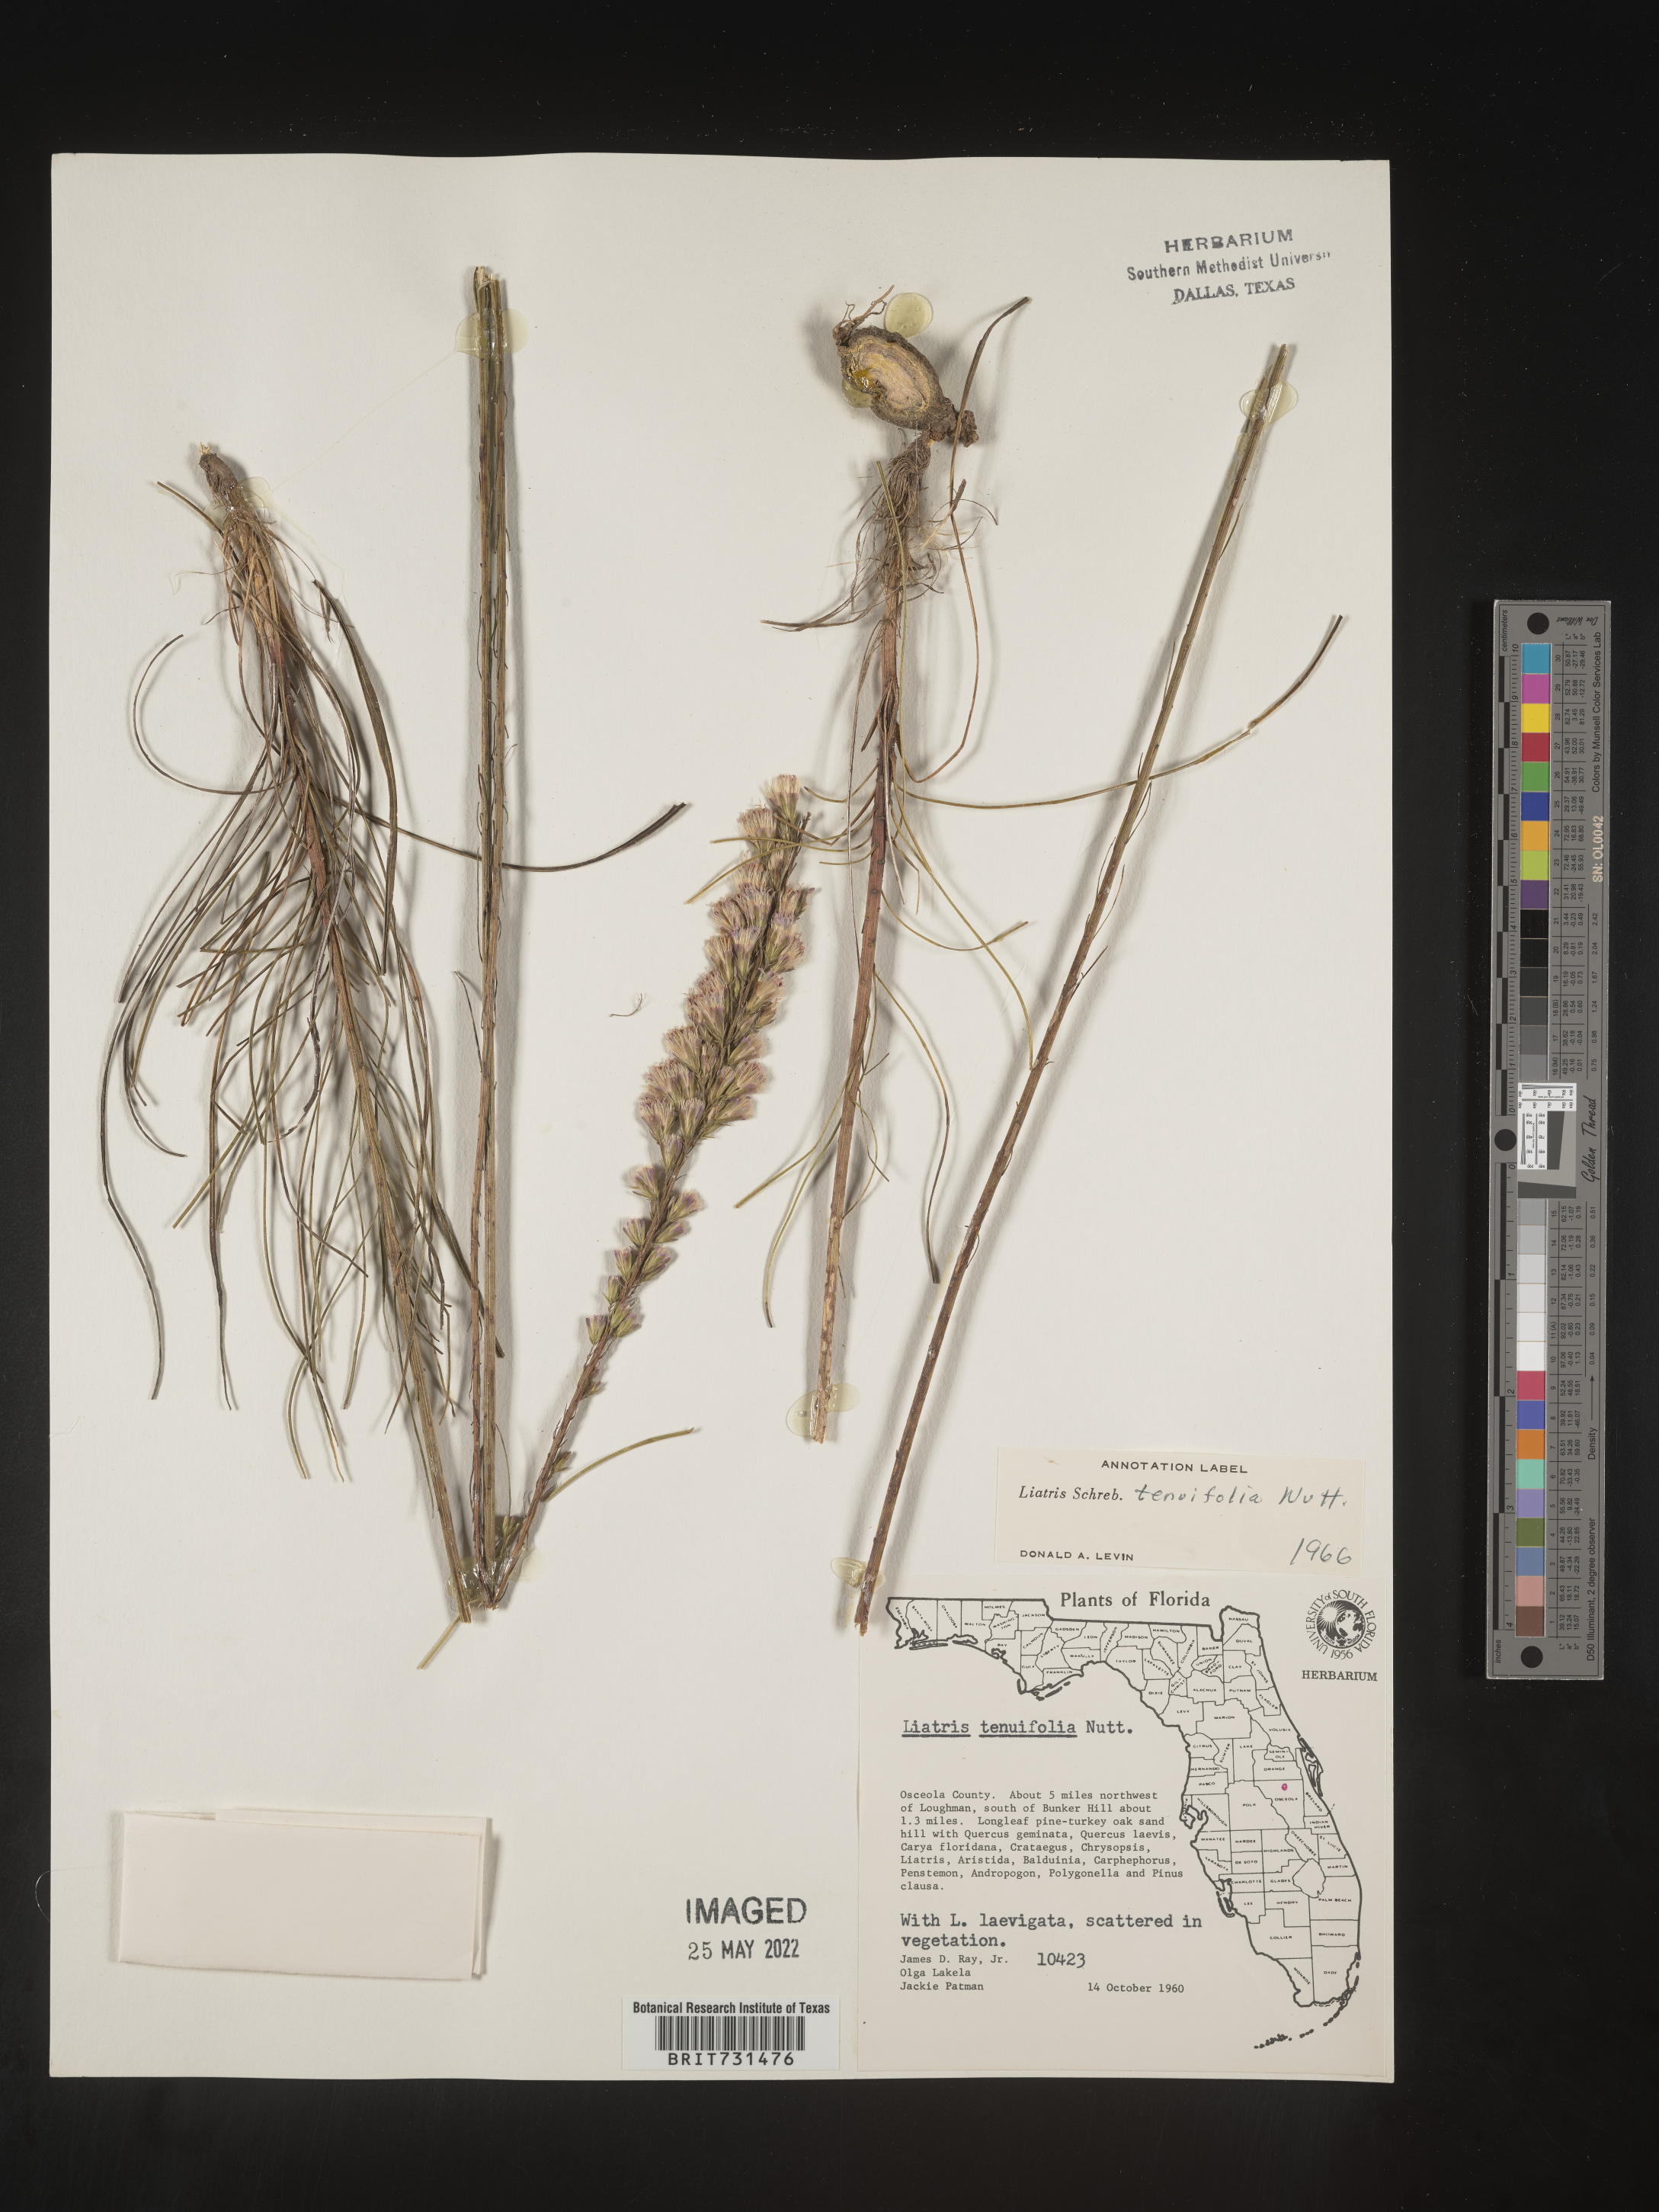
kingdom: Plantae
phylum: Tracheophyta
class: Magnoliopsida
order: Asterales
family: Asteraceae
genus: Liatris
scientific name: Liatris tenuifolia
